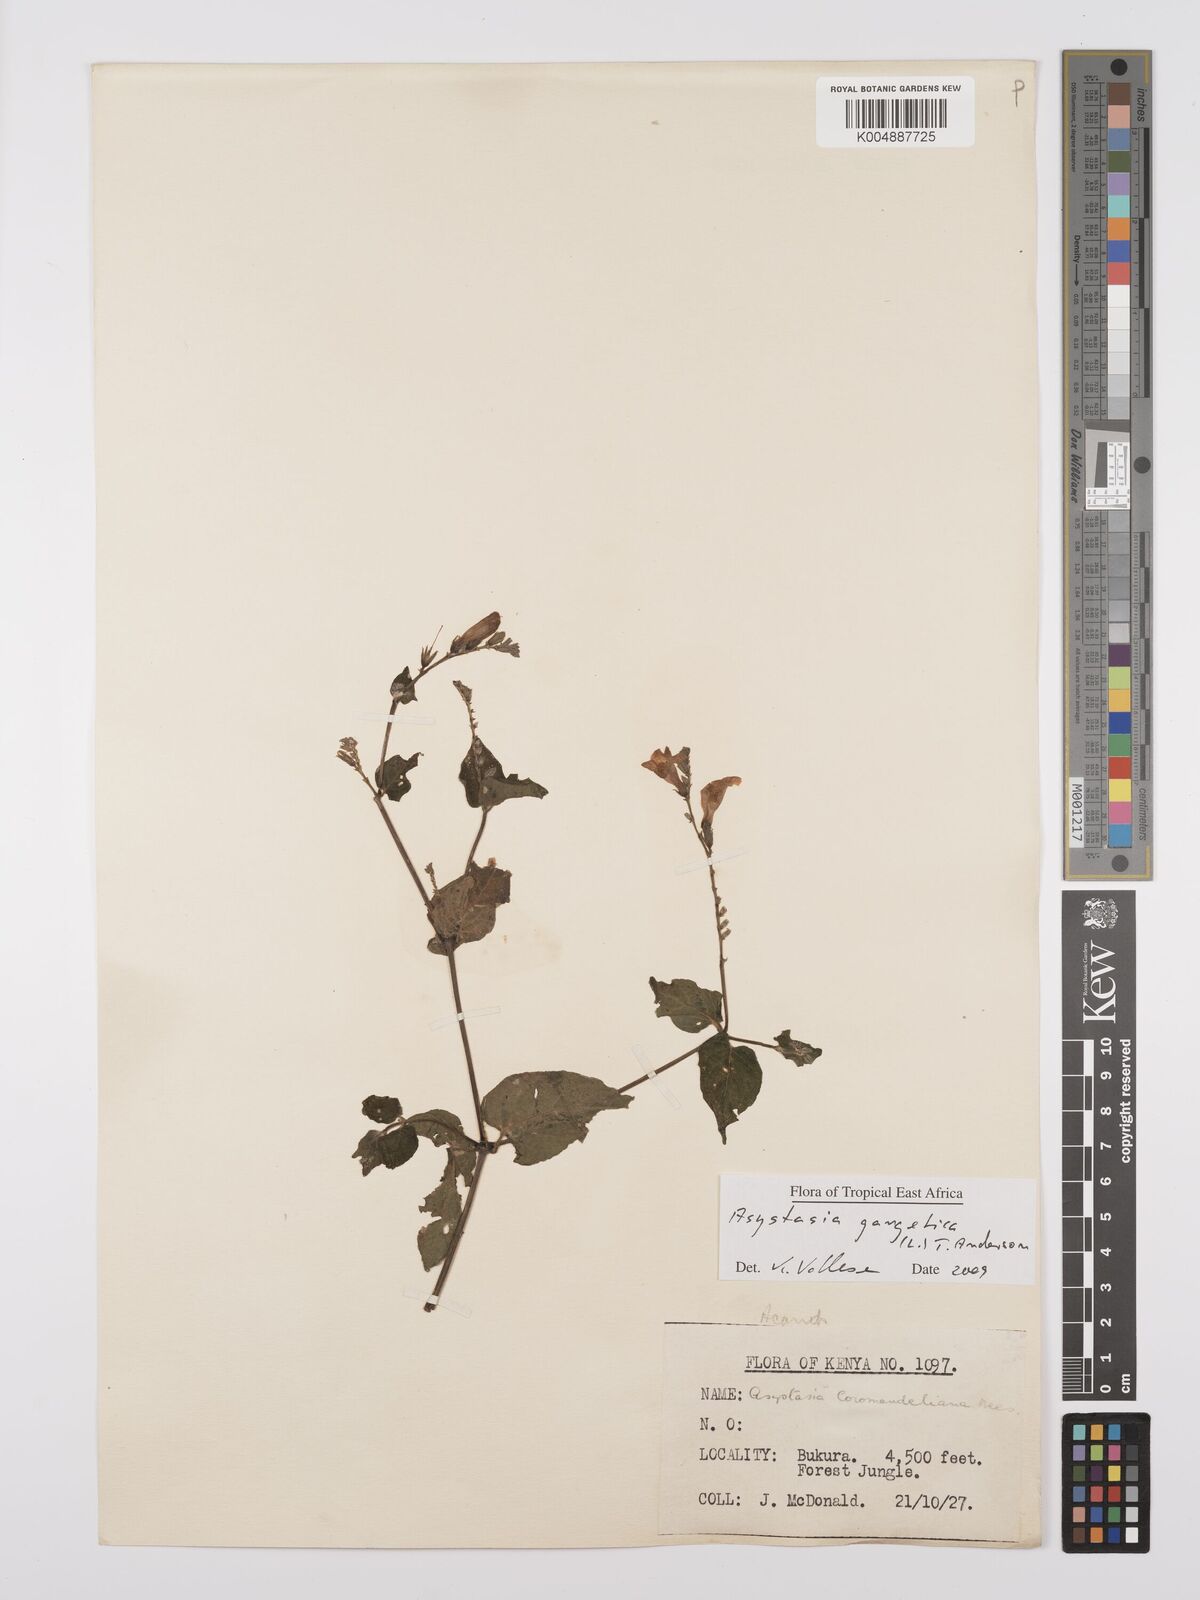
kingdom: Plantae
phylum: Tracheophyta
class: Magnoliopsida
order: Lamiales
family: Acanthaceae
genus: Asystasia
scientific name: Asystasia gangetica
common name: Chinese violet
